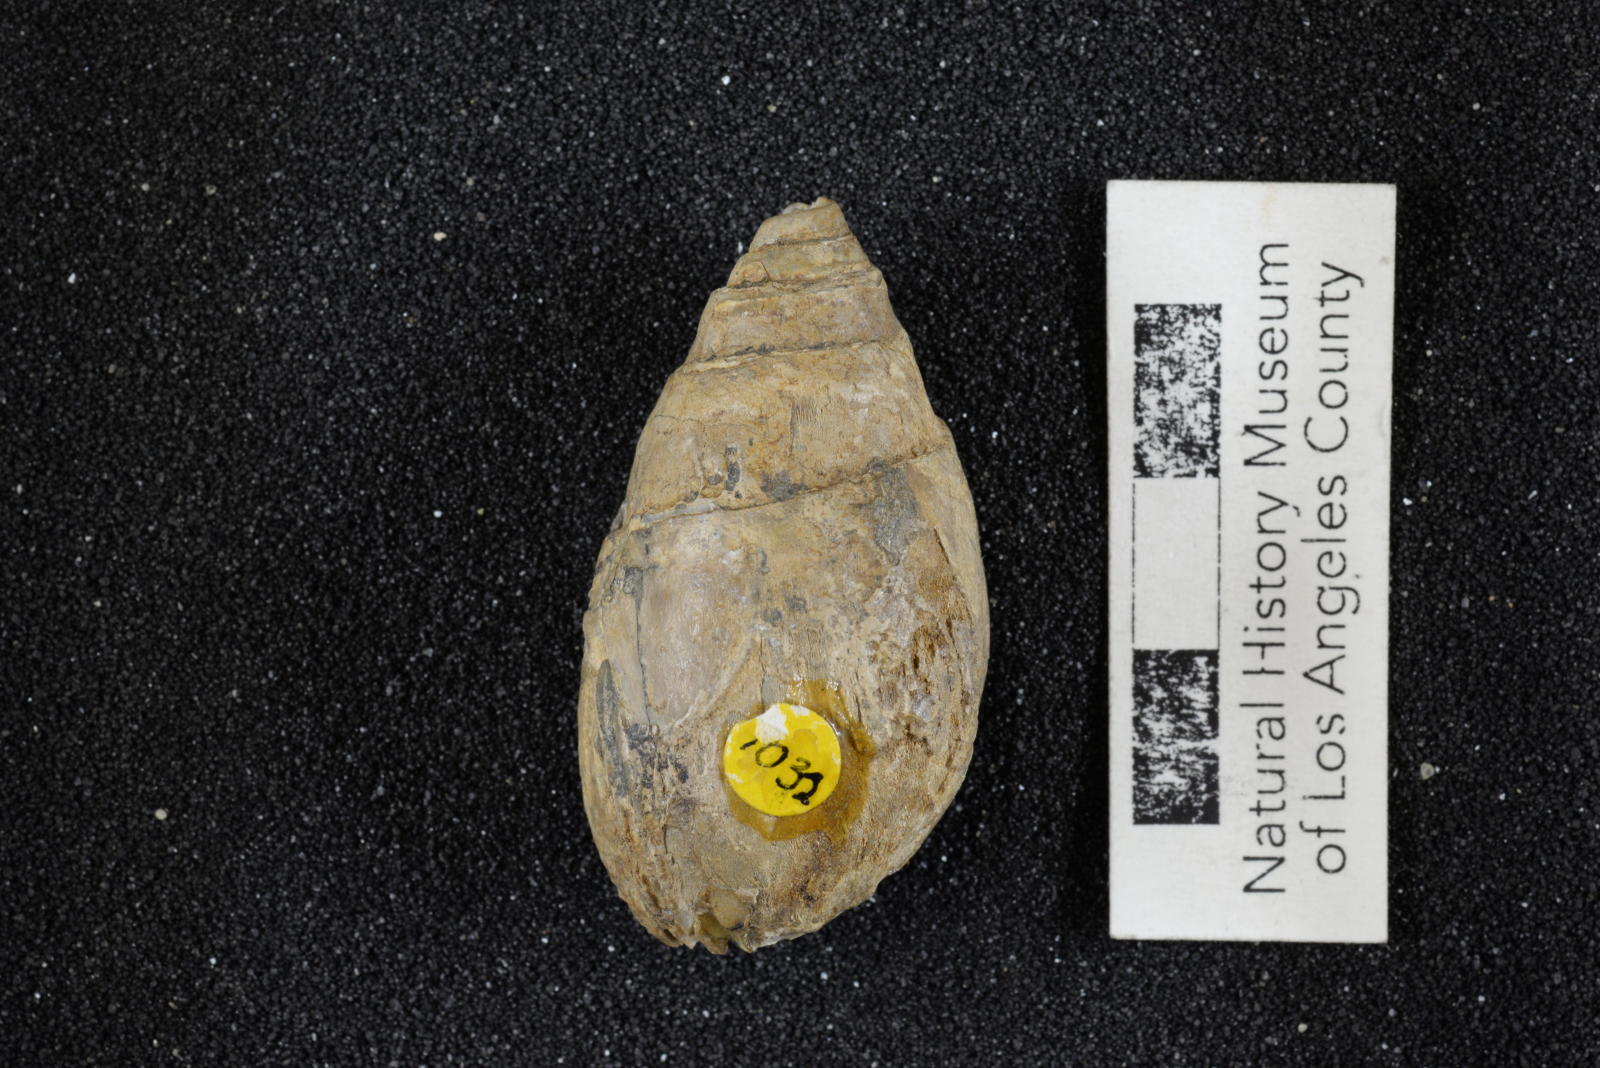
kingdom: Animalia
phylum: Mollusca
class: Gastropoda
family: Pseudomelaniidae
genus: Paosia
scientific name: Paosia Acteonina californica
